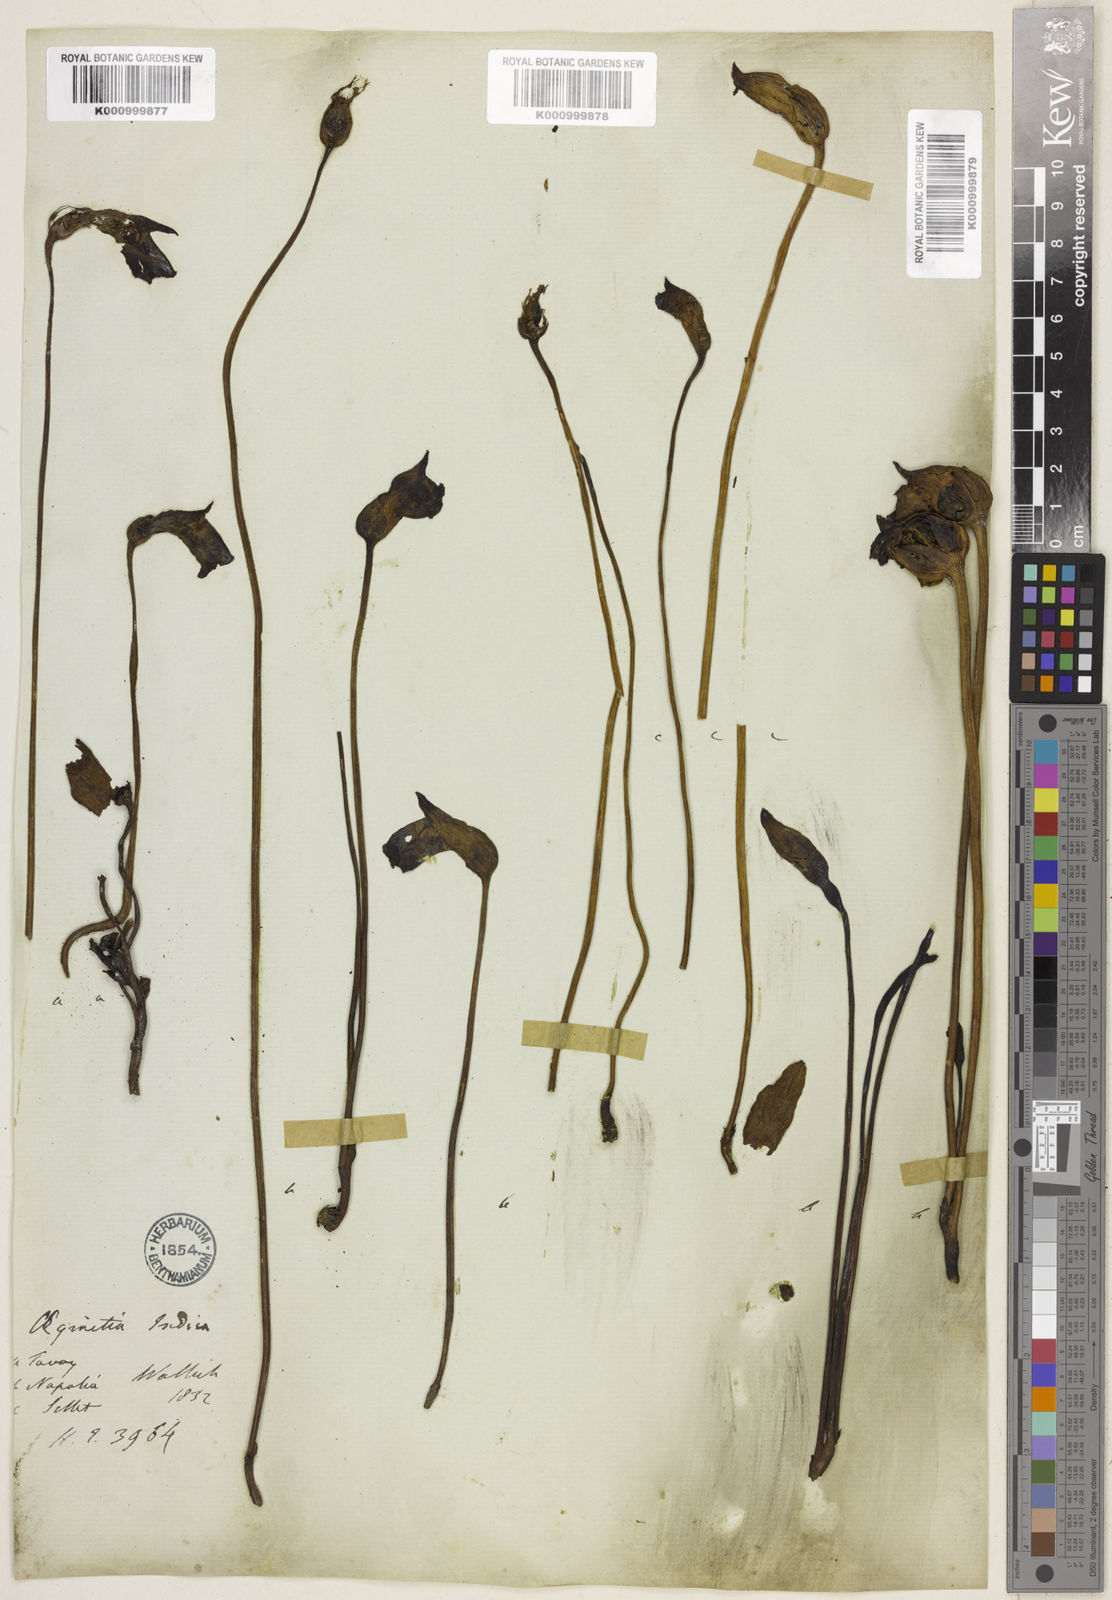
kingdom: Plantae
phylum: Tracheophyta
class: Magnoliopsida
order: Lamiales
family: Orobanchaceae
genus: Aeginetia
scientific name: Aeginetia
